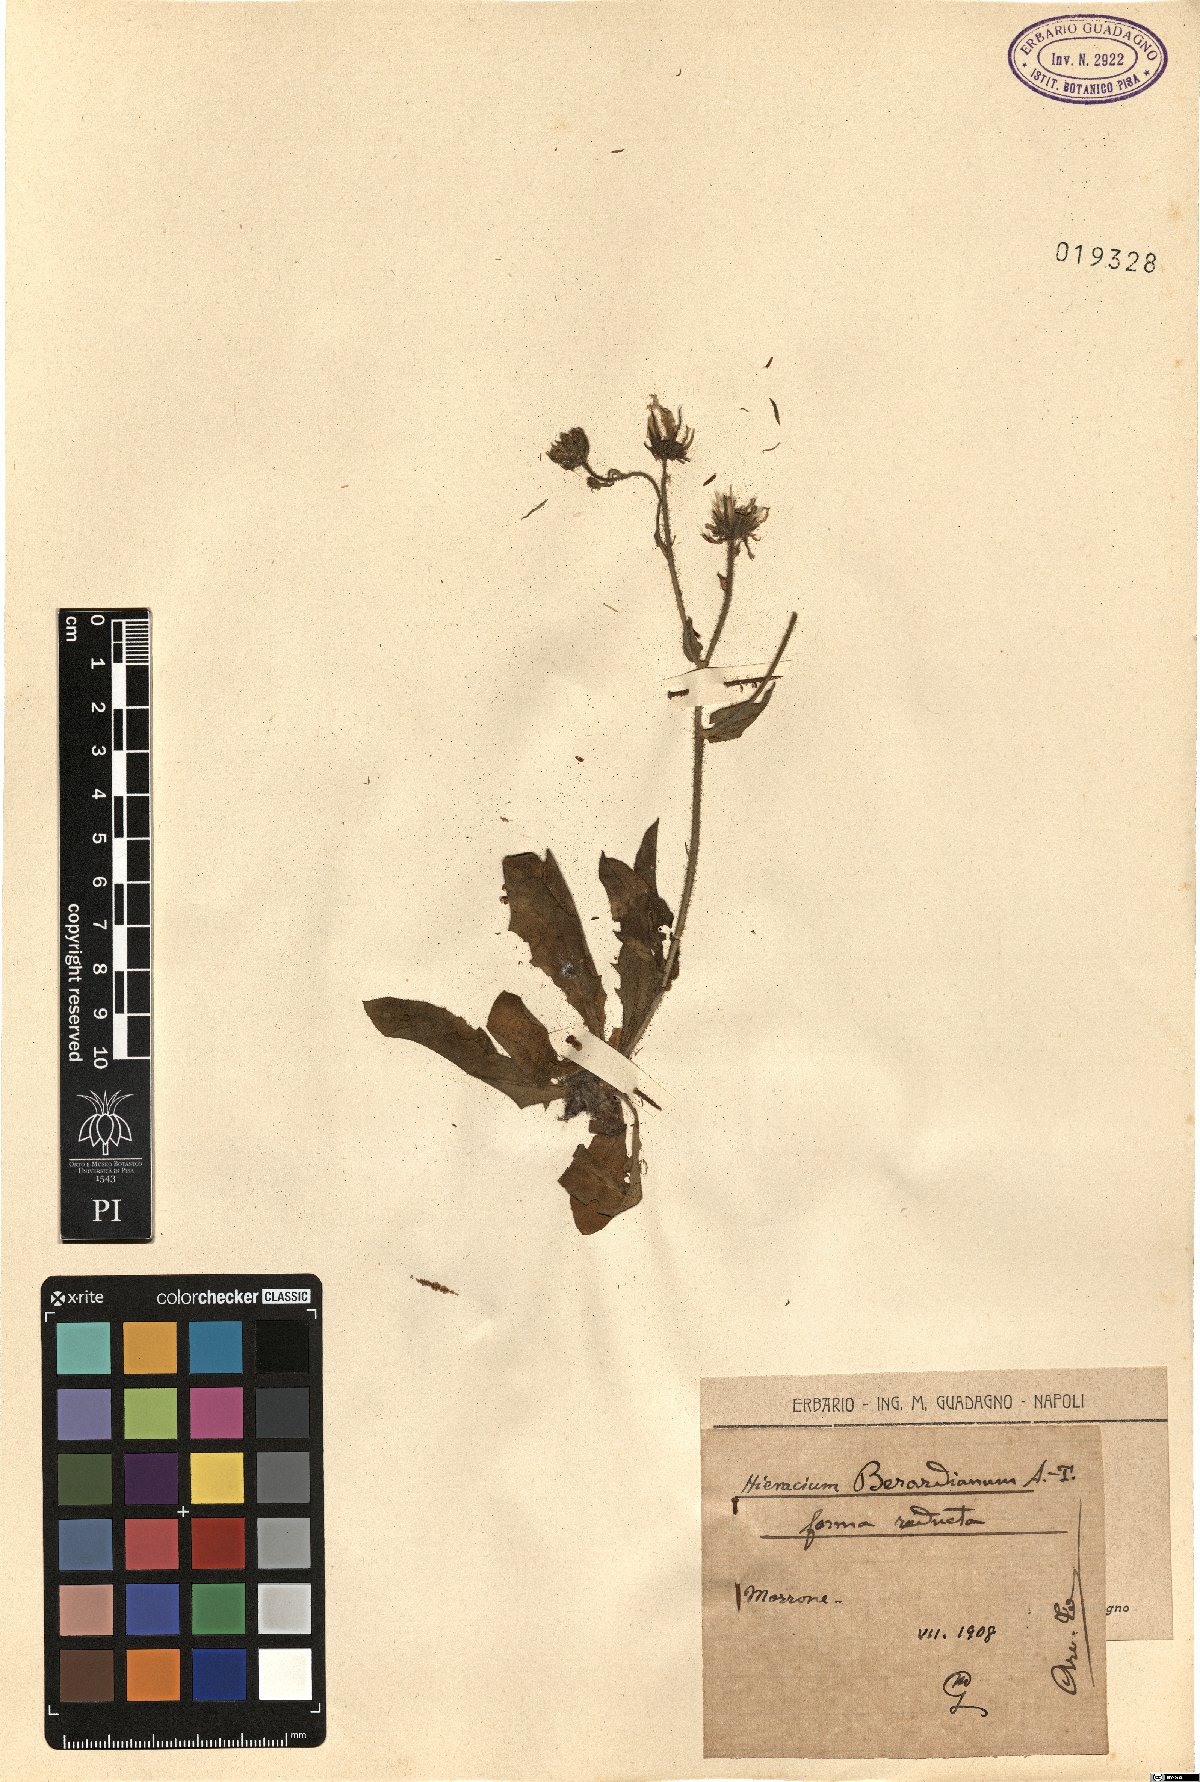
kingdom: Plantae
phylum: Tracheophyta
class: Magnoliopsida
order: Asterales
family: Asteraceae
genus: Hieracium
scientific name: Hieracium amplexicaule
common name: Sticky hawkweed
